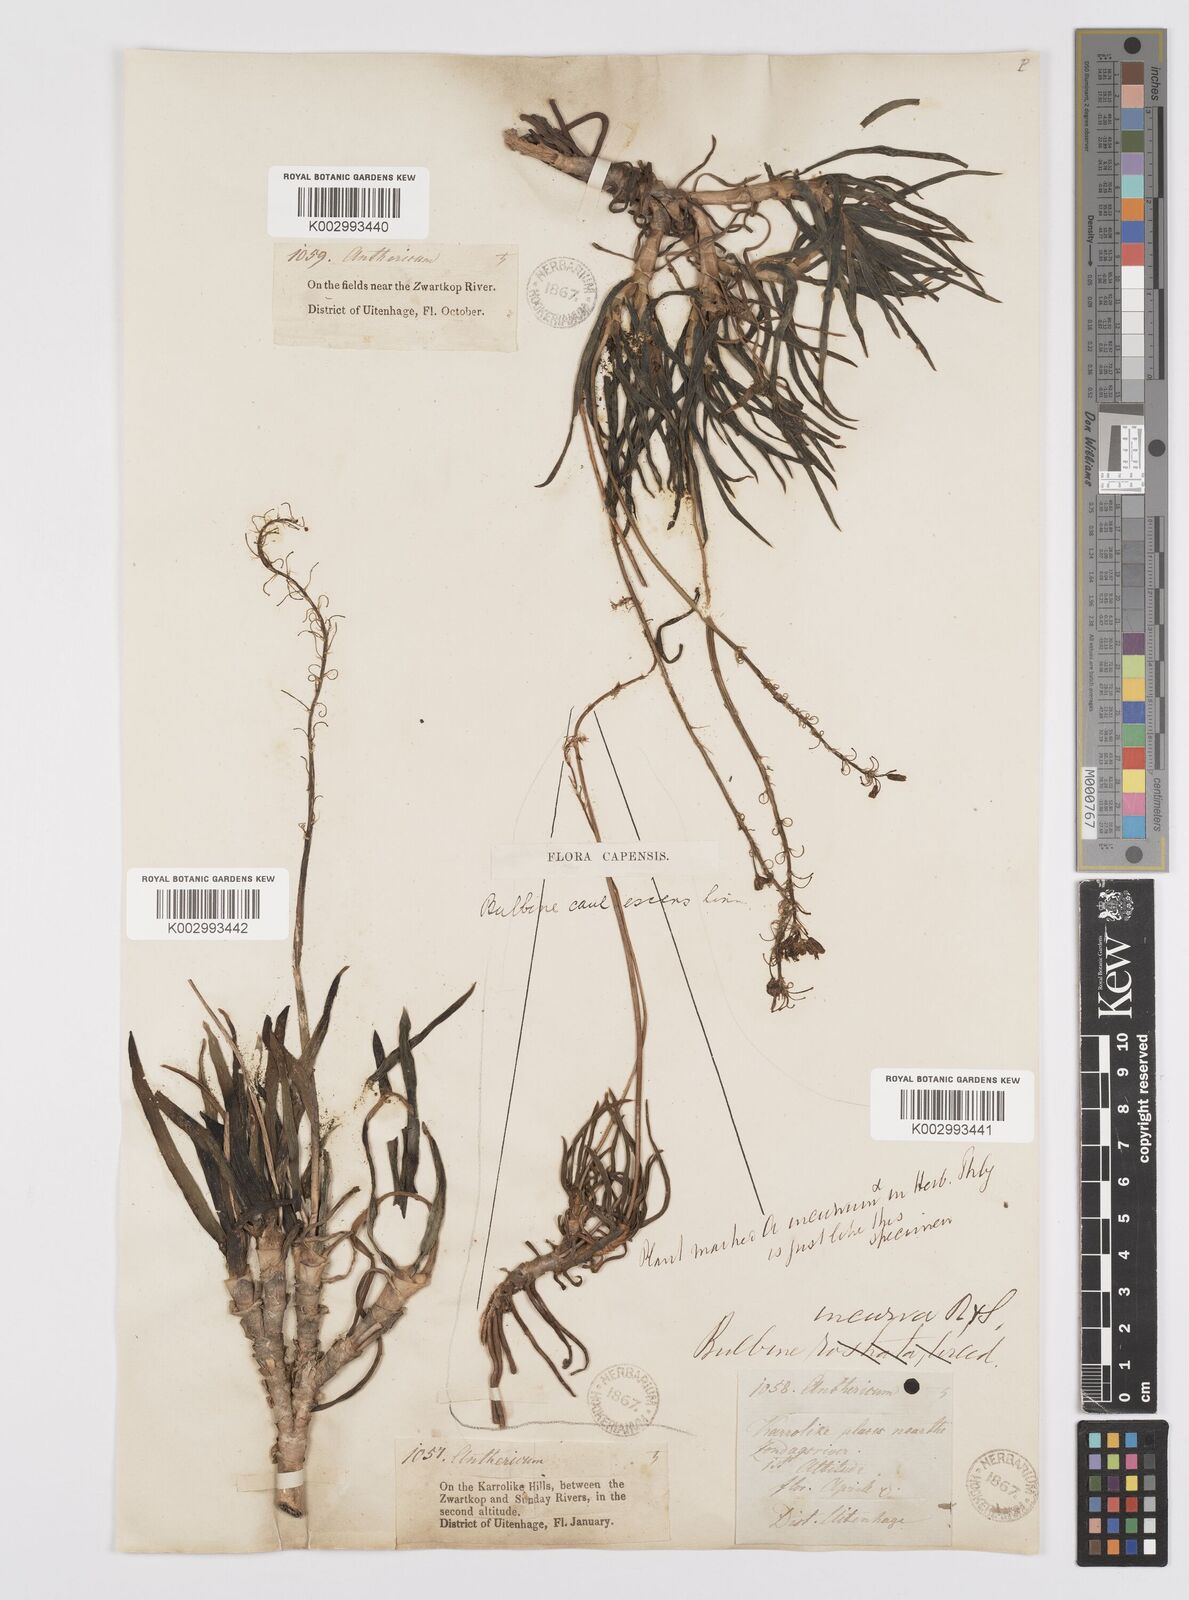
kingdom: Plantae
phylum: Tracheophyta
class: Liliopsida
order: Asparagales
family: Asphodelaceae
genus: Bulbine
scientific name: Bulbine frutescens
